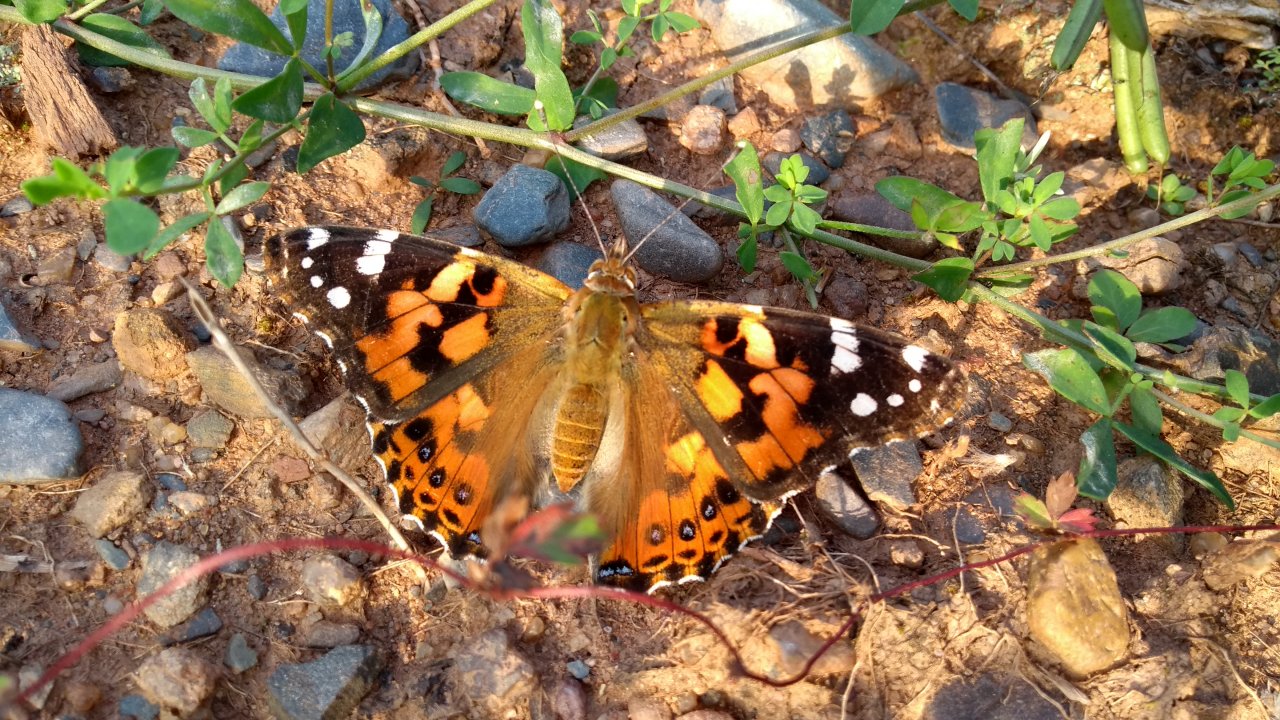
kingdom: Animalia
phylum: Arthropoda
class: Insecta
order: Lepidoptera
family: Nymphalidae
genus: Vanessa
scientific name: Vanessa cardui
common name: Painted Lady
